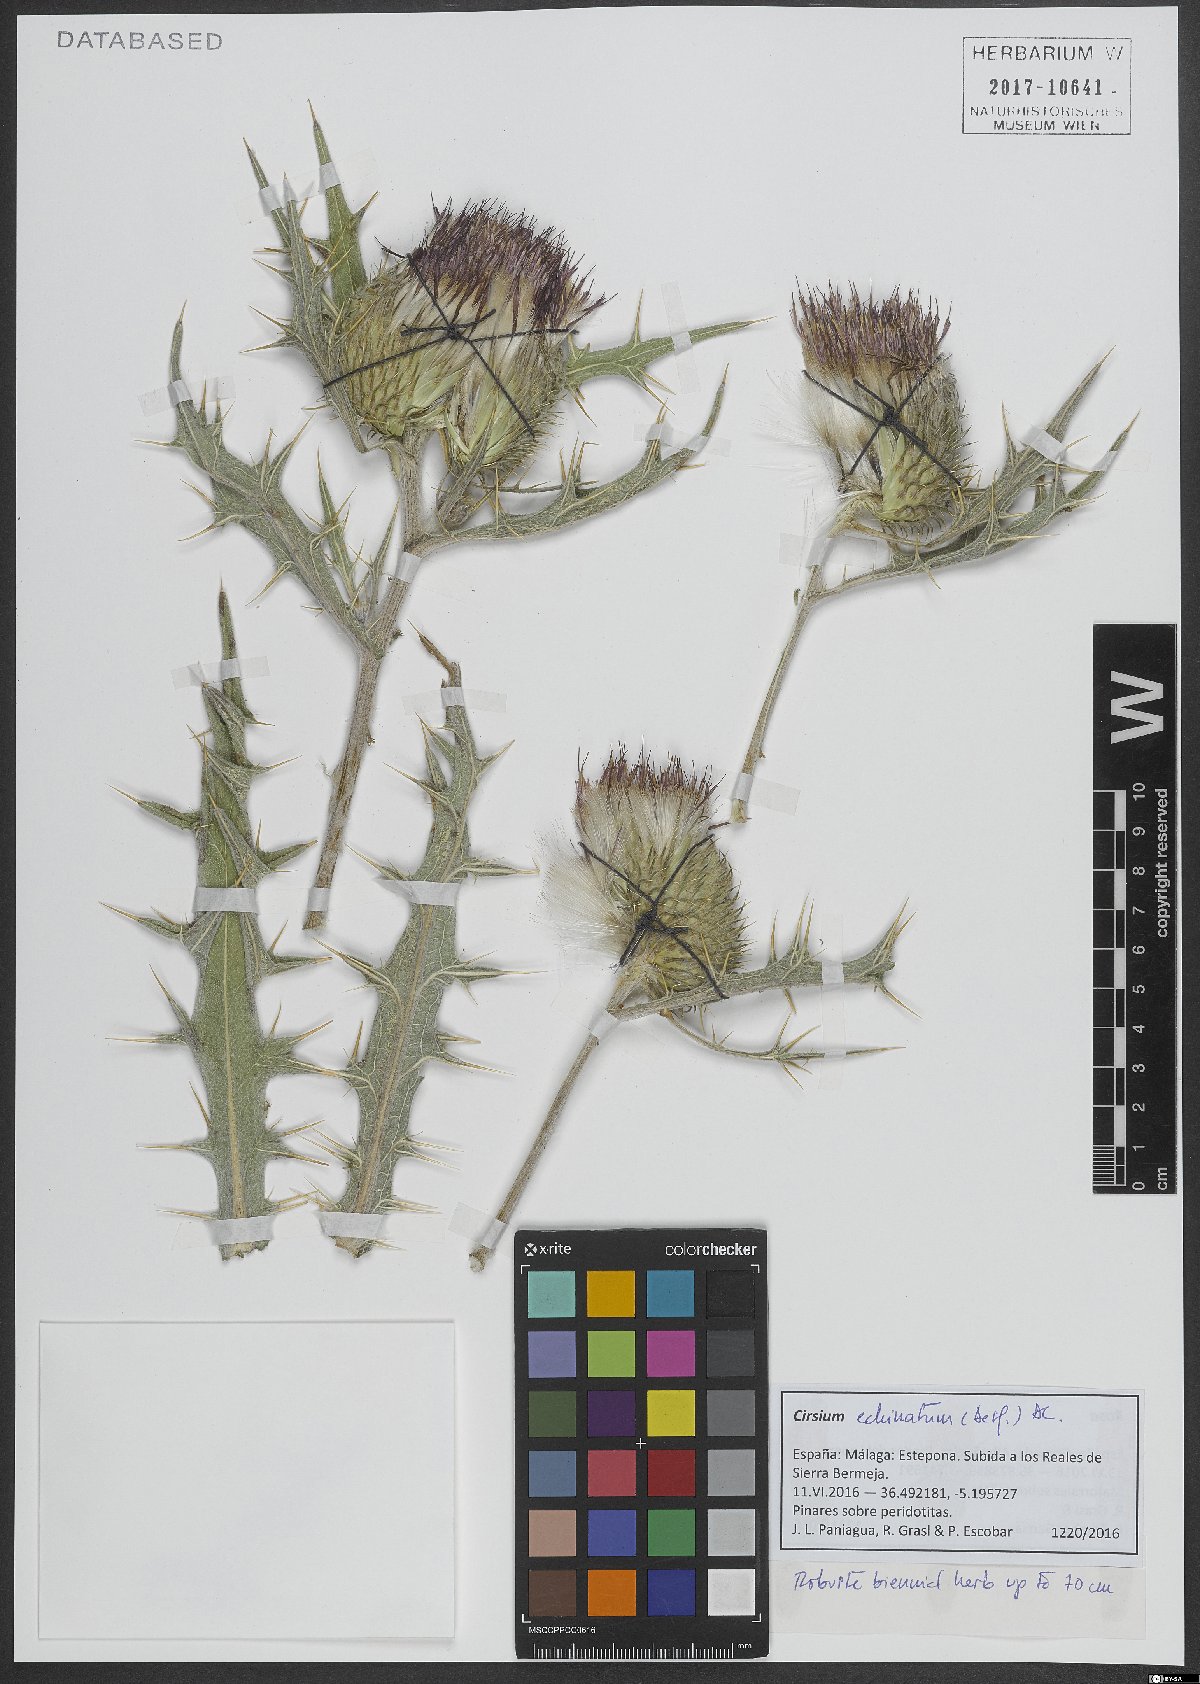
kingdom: Plantae
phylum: Tracheophyta
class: Magnoliopsida
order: Asterales
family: Asteraceae
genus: Lophiolepis
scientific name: Lophiolepis echinata
